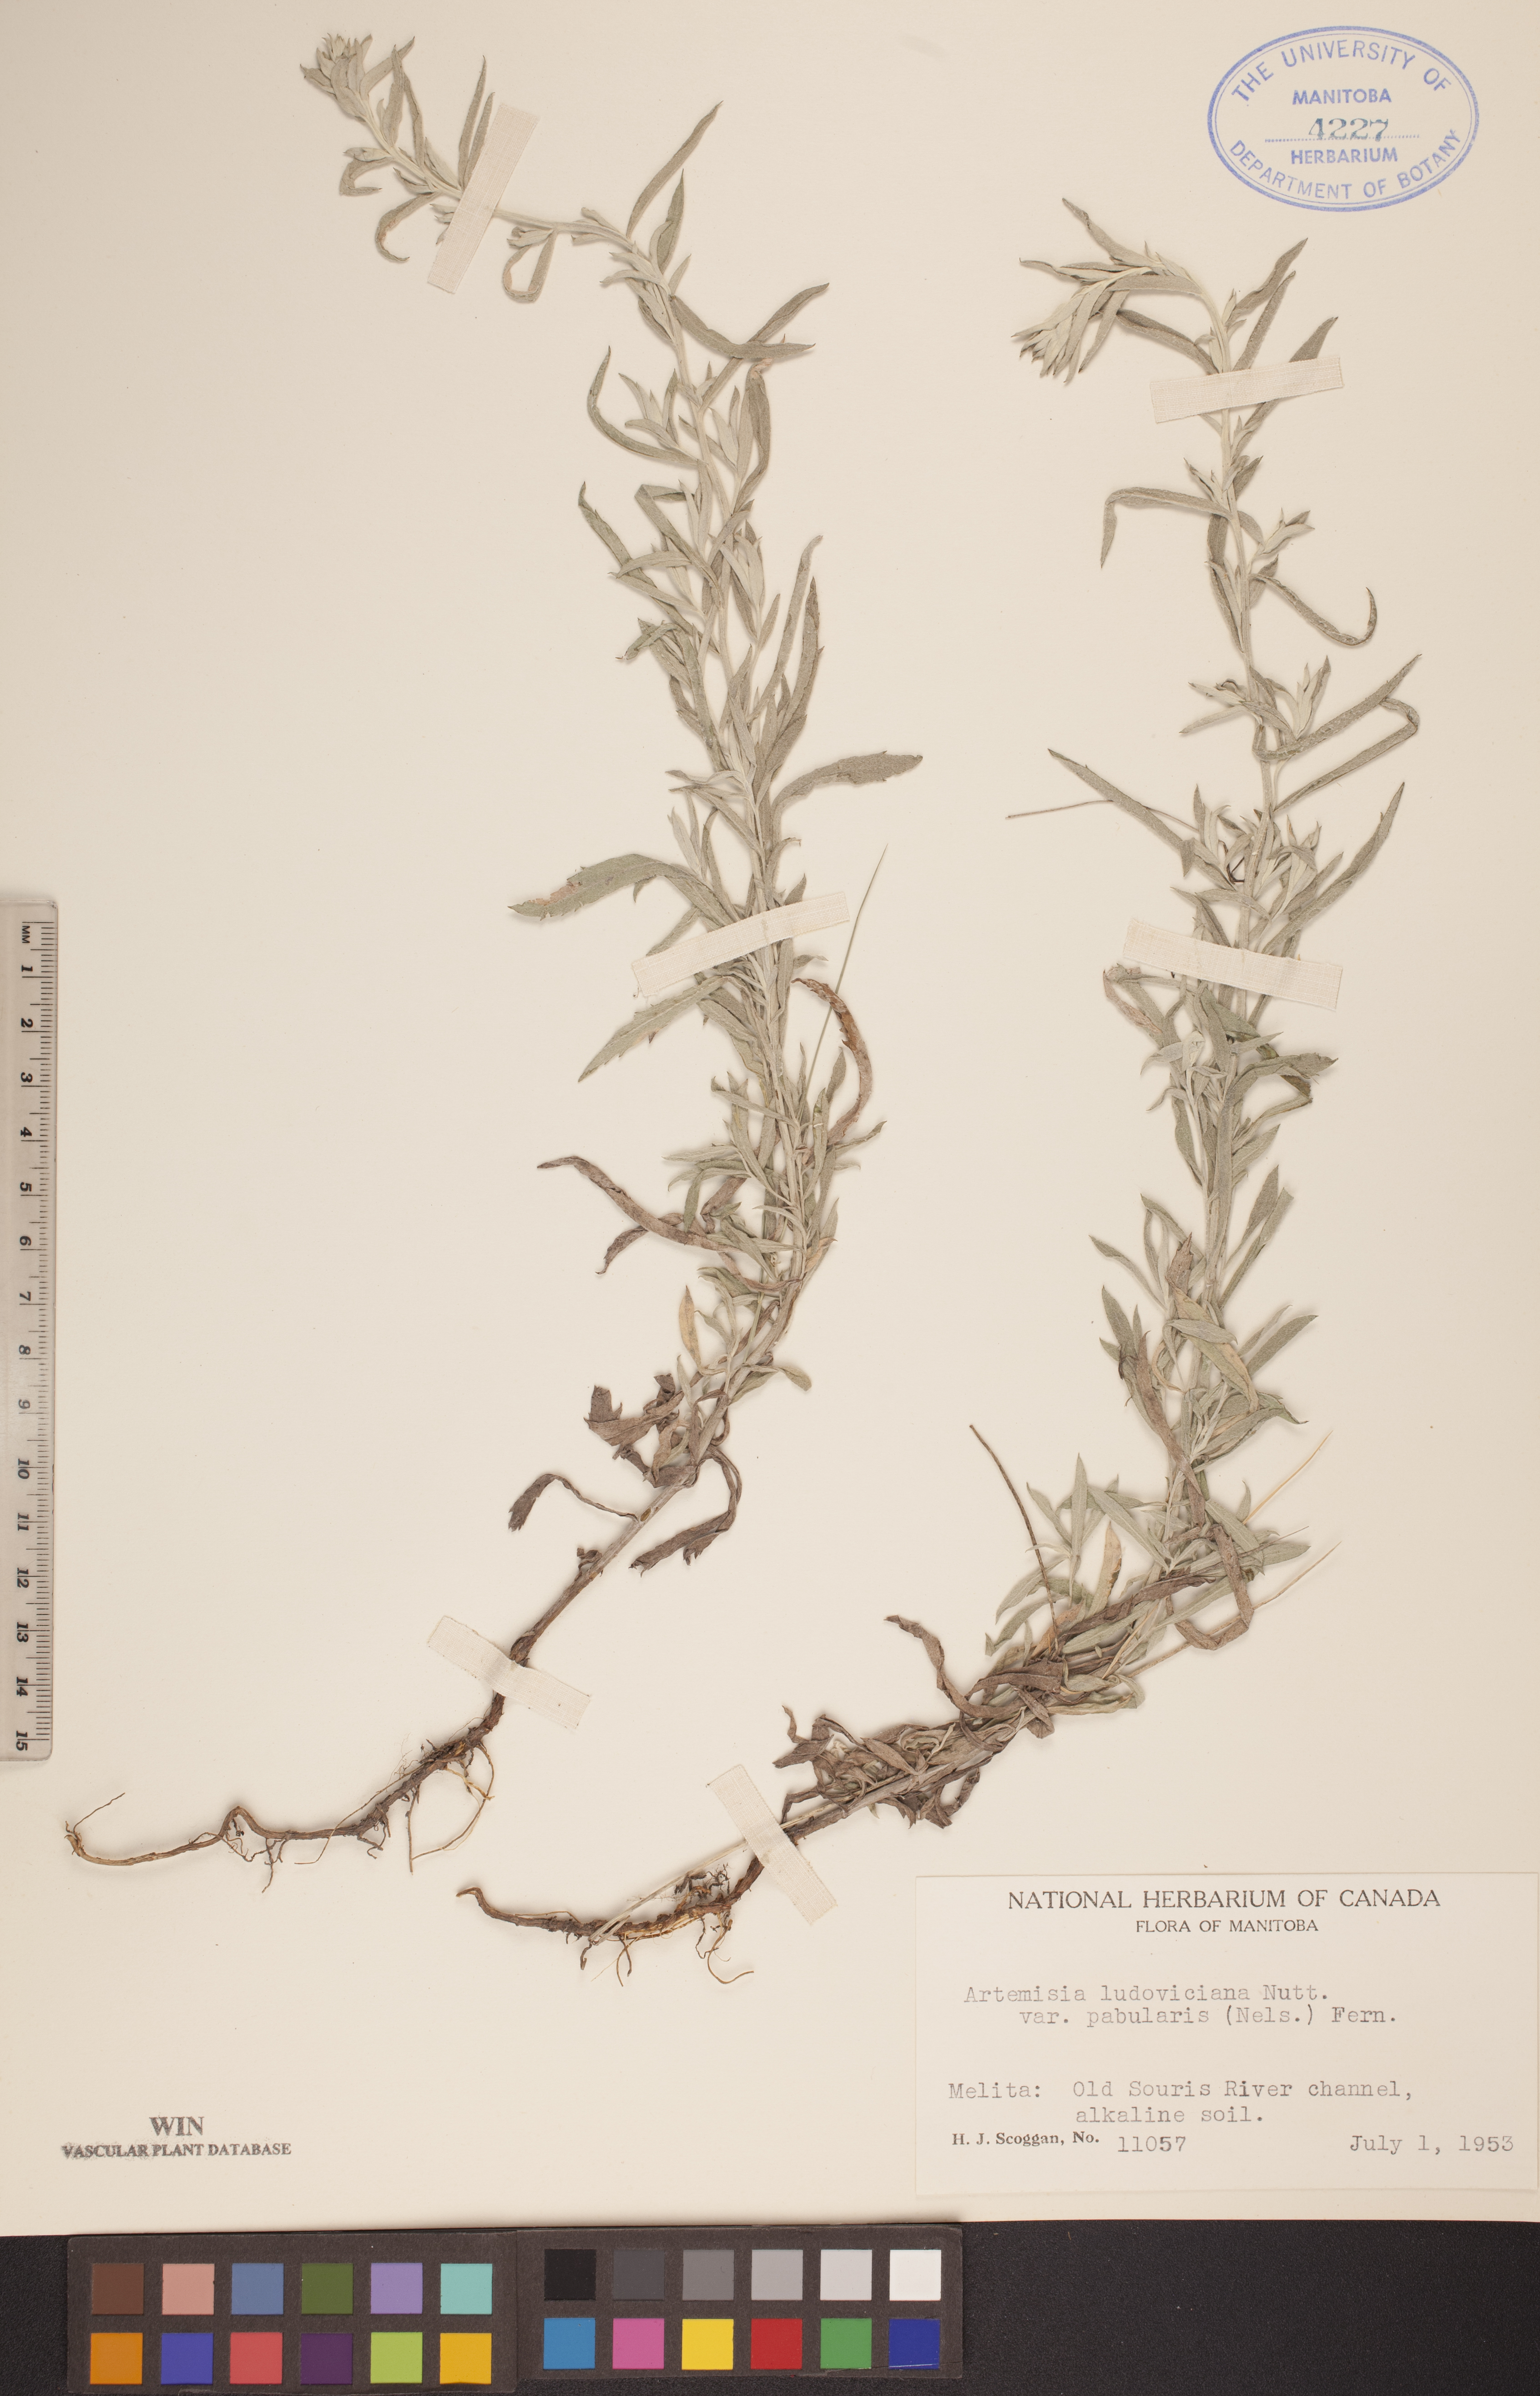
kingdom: Plantae
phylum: Tracheophyta
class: Magnoliopsida
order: Asterales
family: Asteraceae
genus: Artemisia
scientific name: Artemisia ludoviciana
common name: Western mugwort
